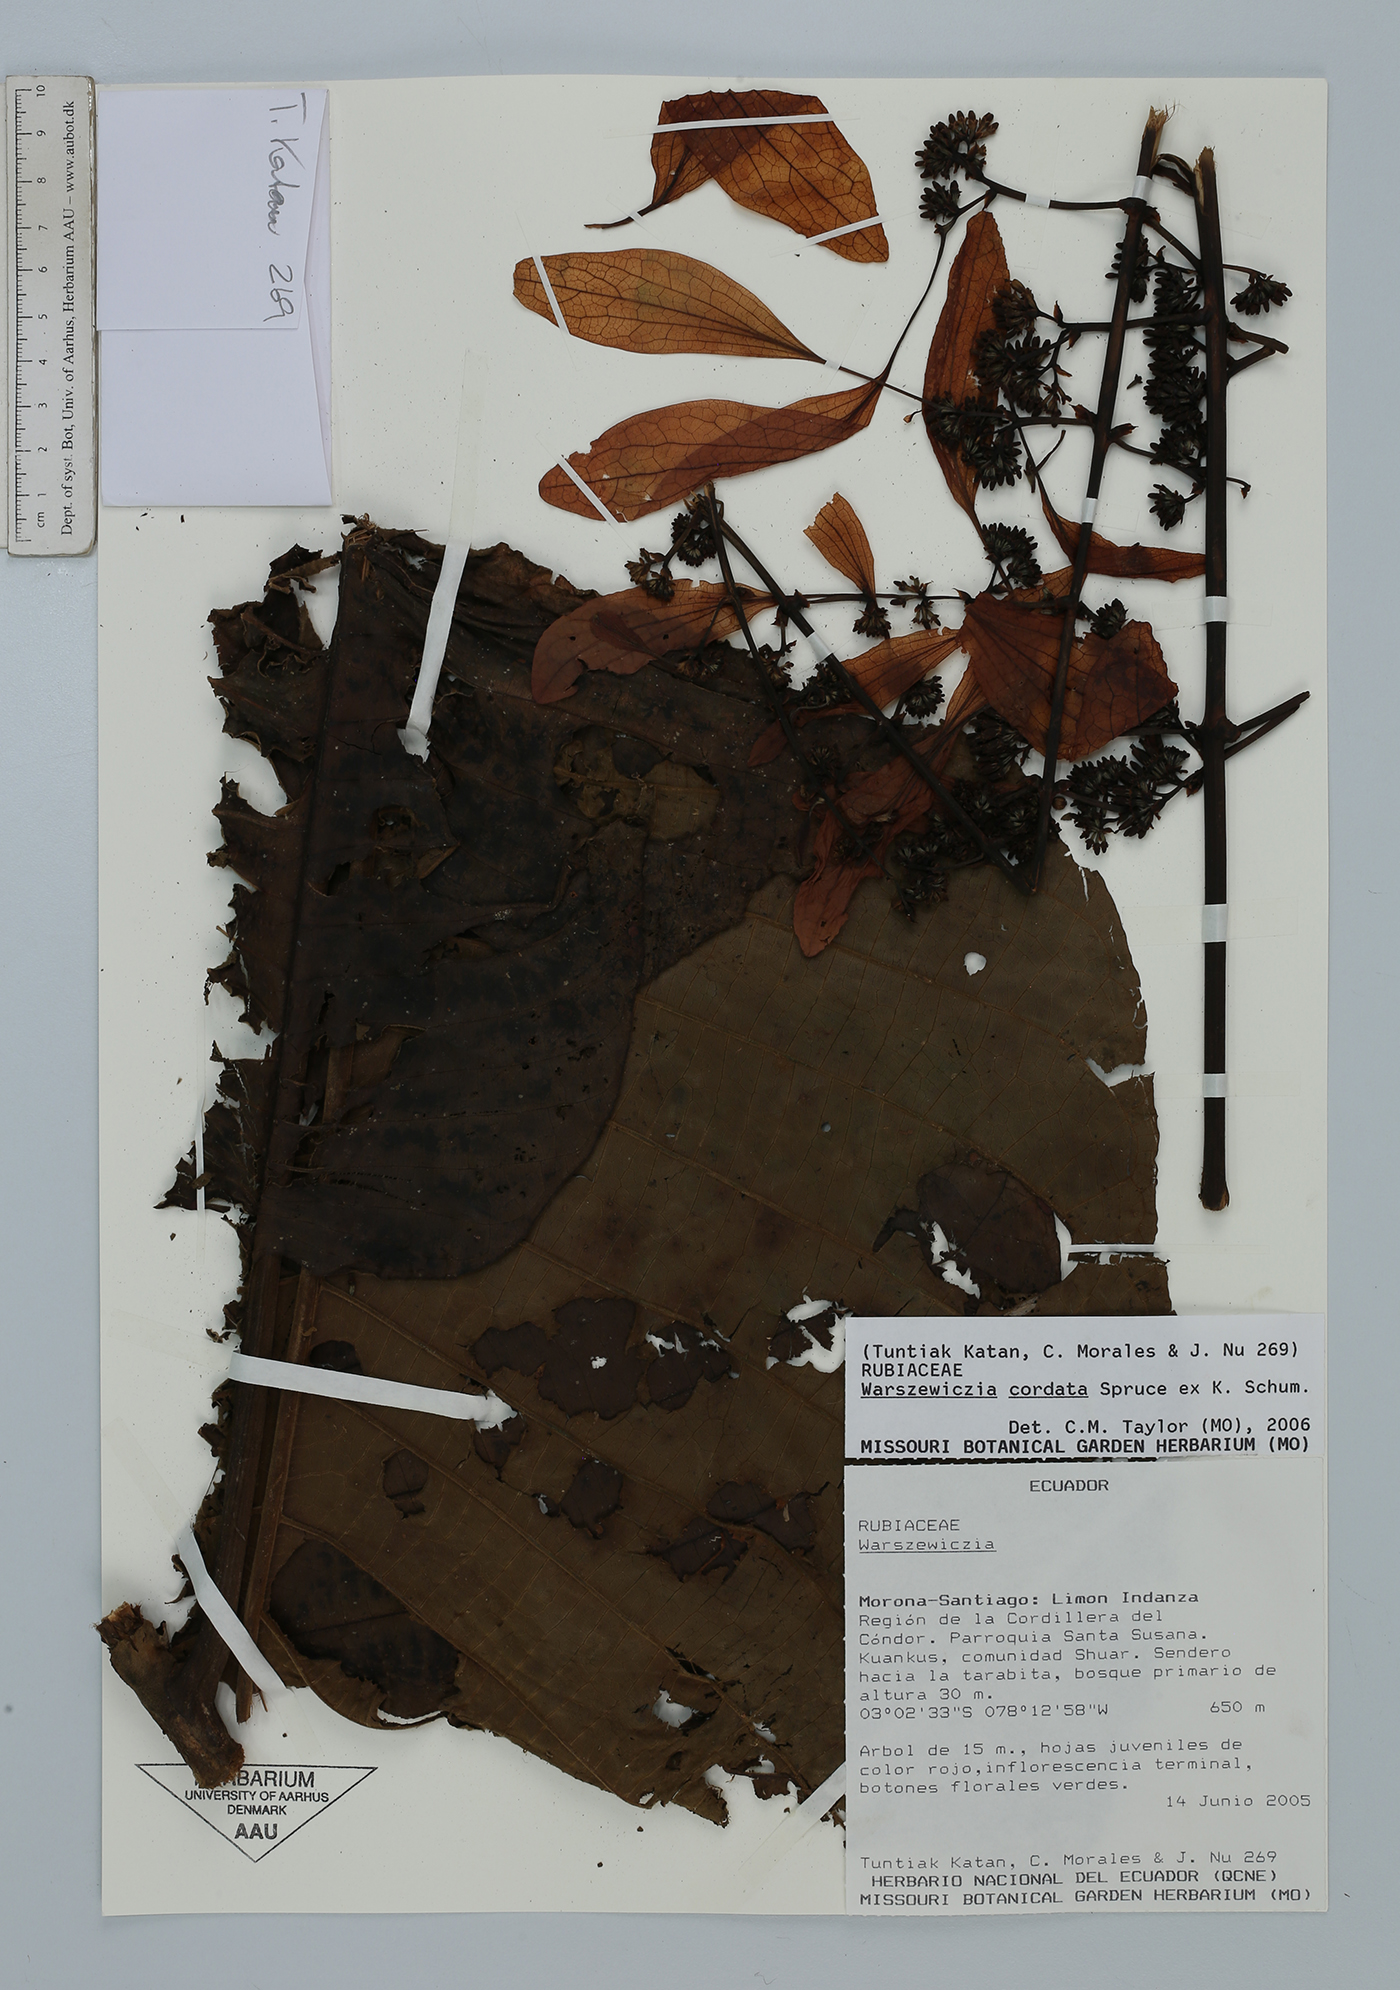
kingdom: Plantae
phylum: Tracheophyta
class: Magnoliopsida
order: Gentianales
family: Rubiaceae
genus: Warszewiczia
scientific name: Warszewiczia cordata
